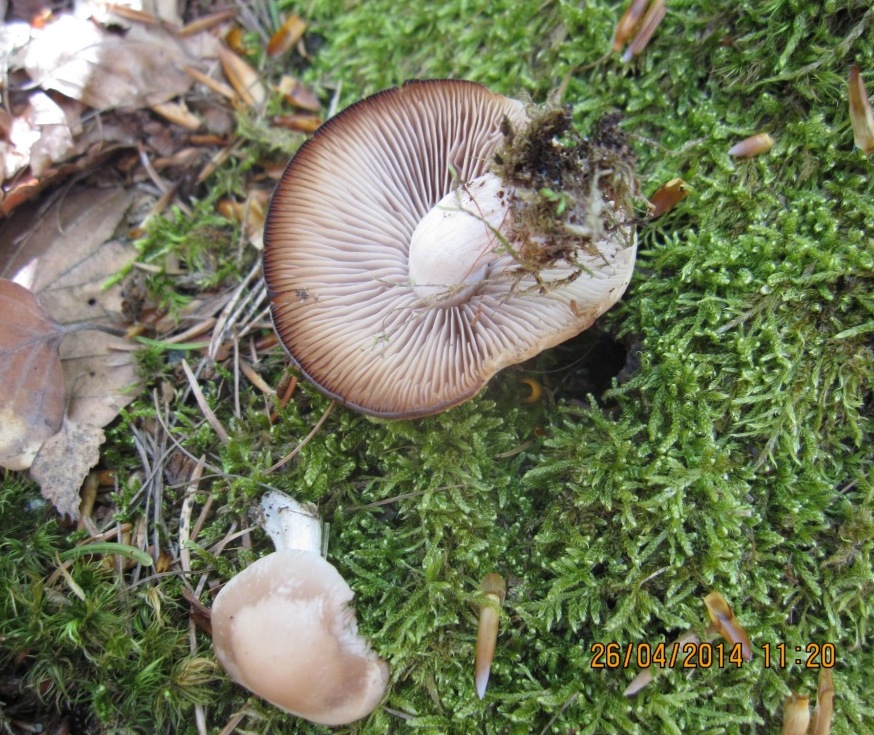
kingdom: Fungi
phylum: Basidiomycota
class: Agaricomycetes
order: Agaricales
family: Psathyrellaceae
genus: Homophron
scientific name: Homophron spadiceum
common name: daddelbrun mørkhat
